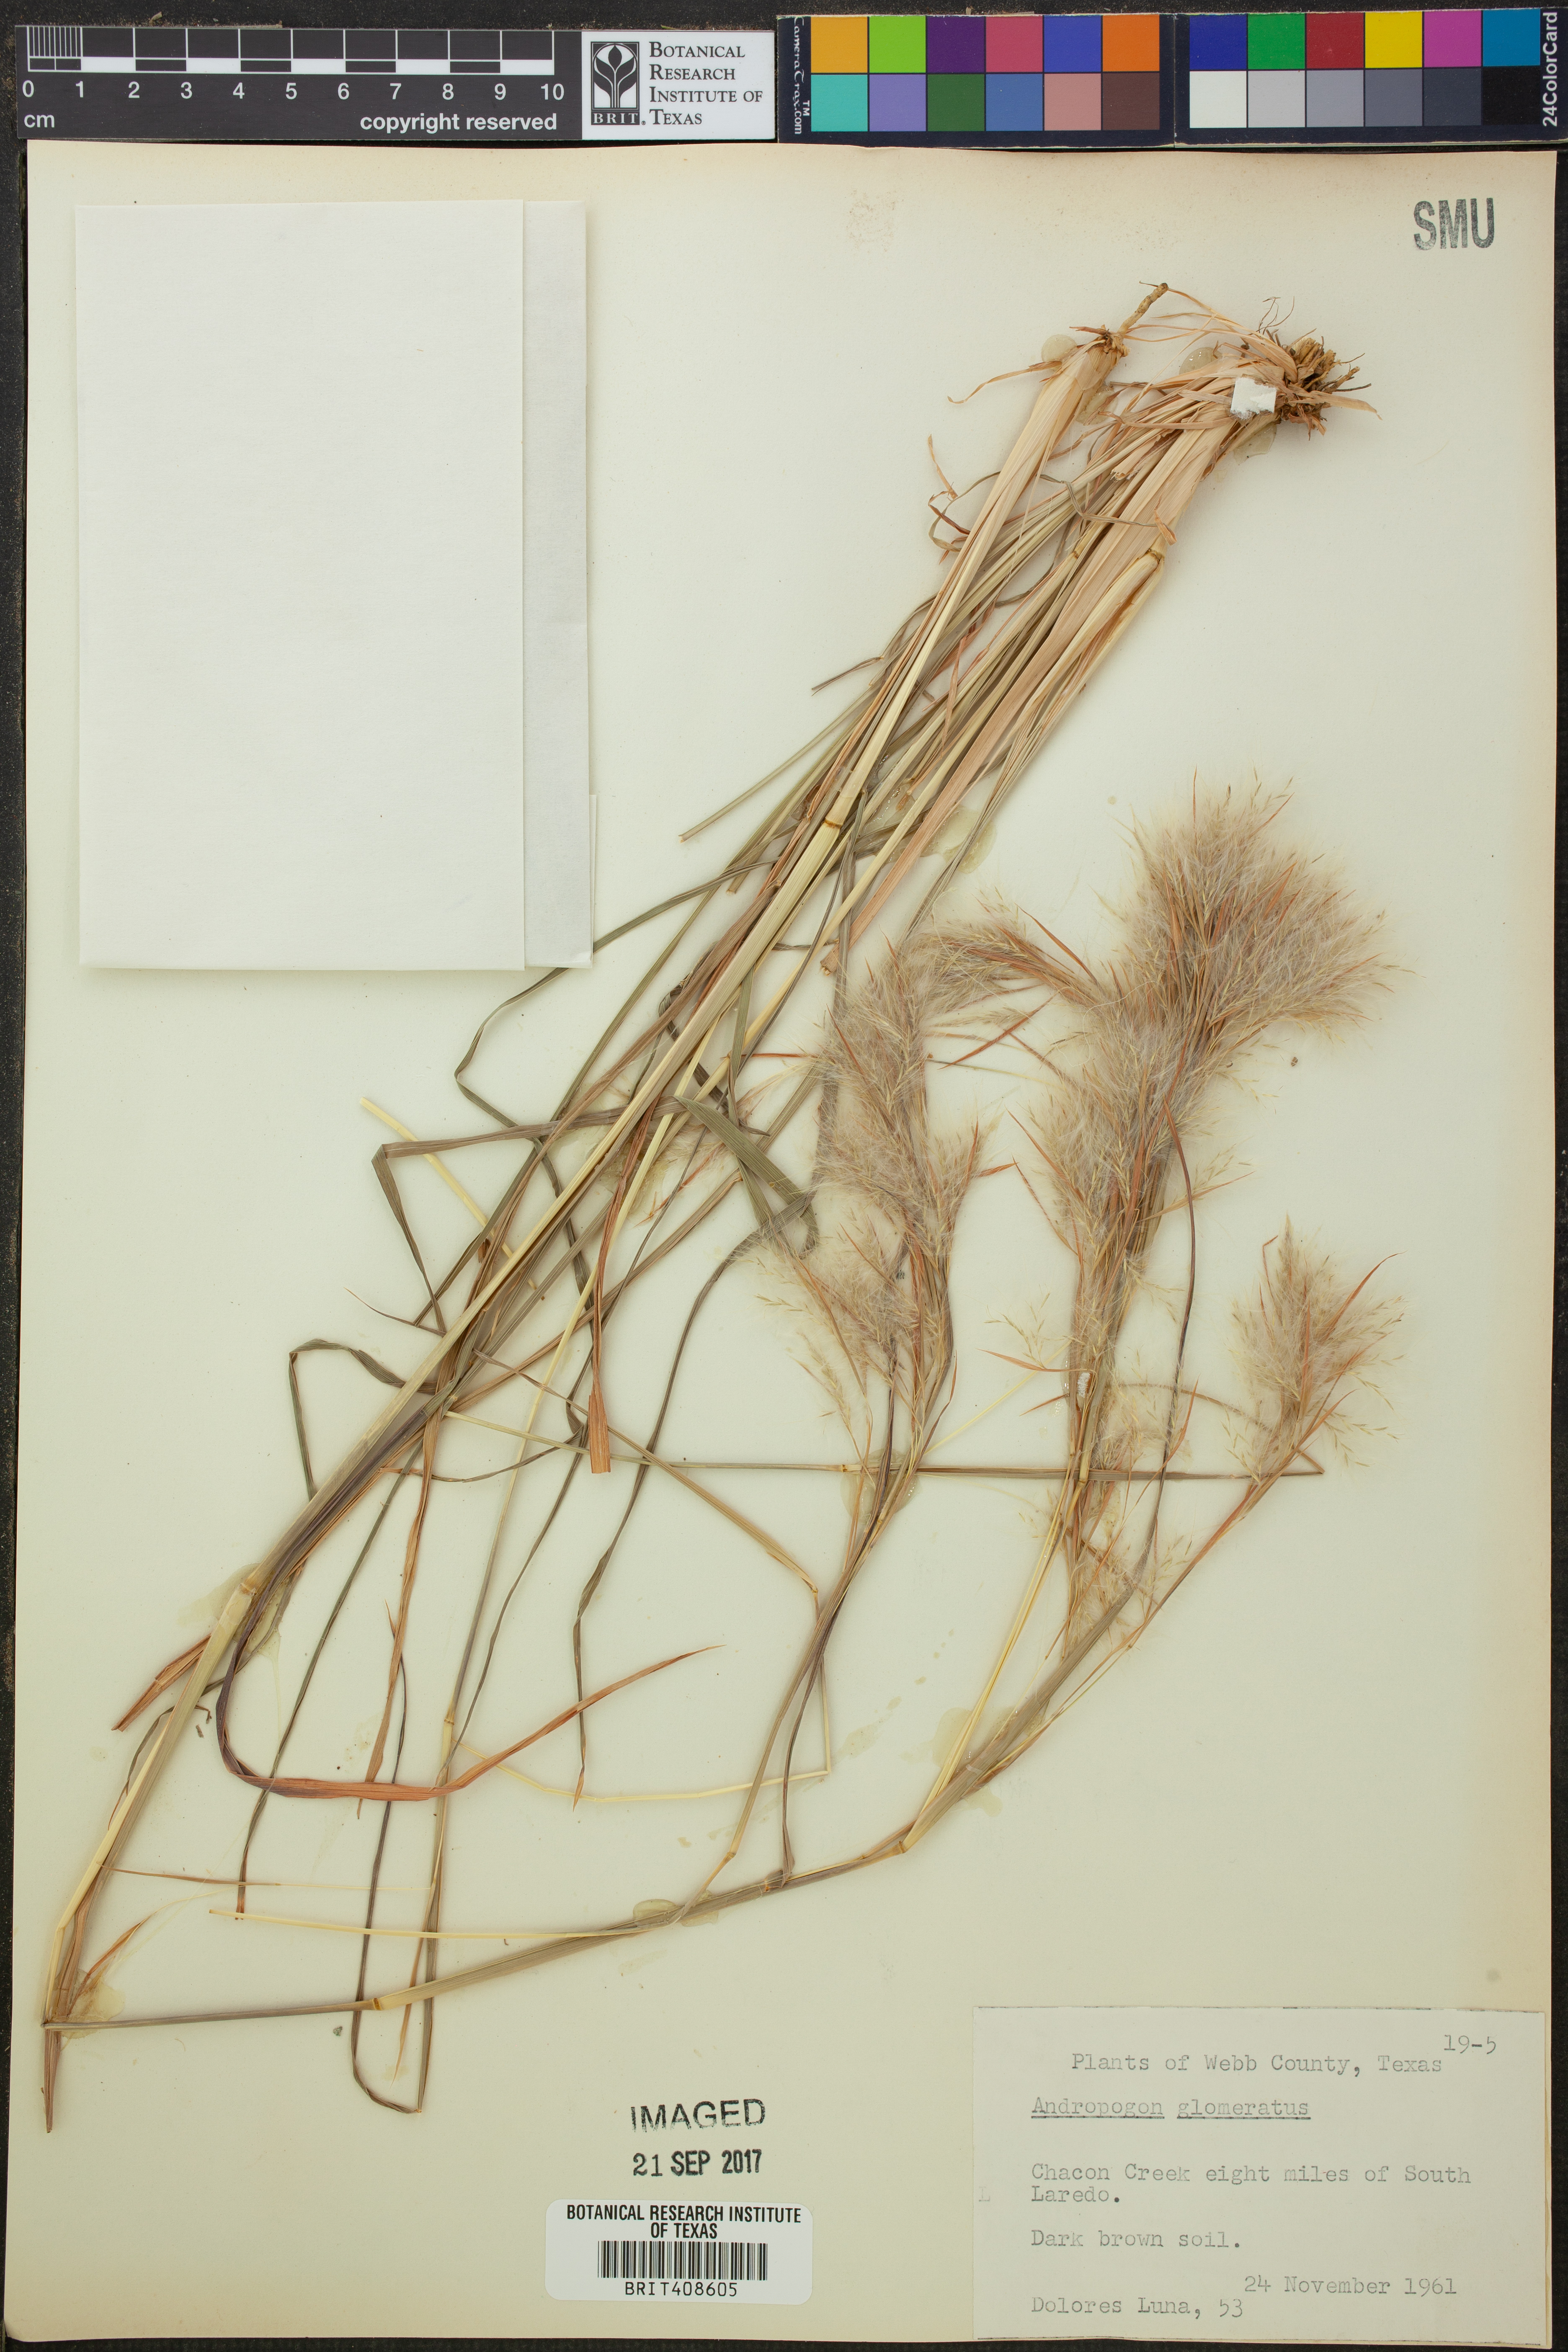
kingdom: Plantae
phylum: Tracheophyta
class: Liliopsida
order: Poales
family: Poaceae
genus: Andropogon
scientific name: Andropogon glomeratus
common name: Bushy beard grass
